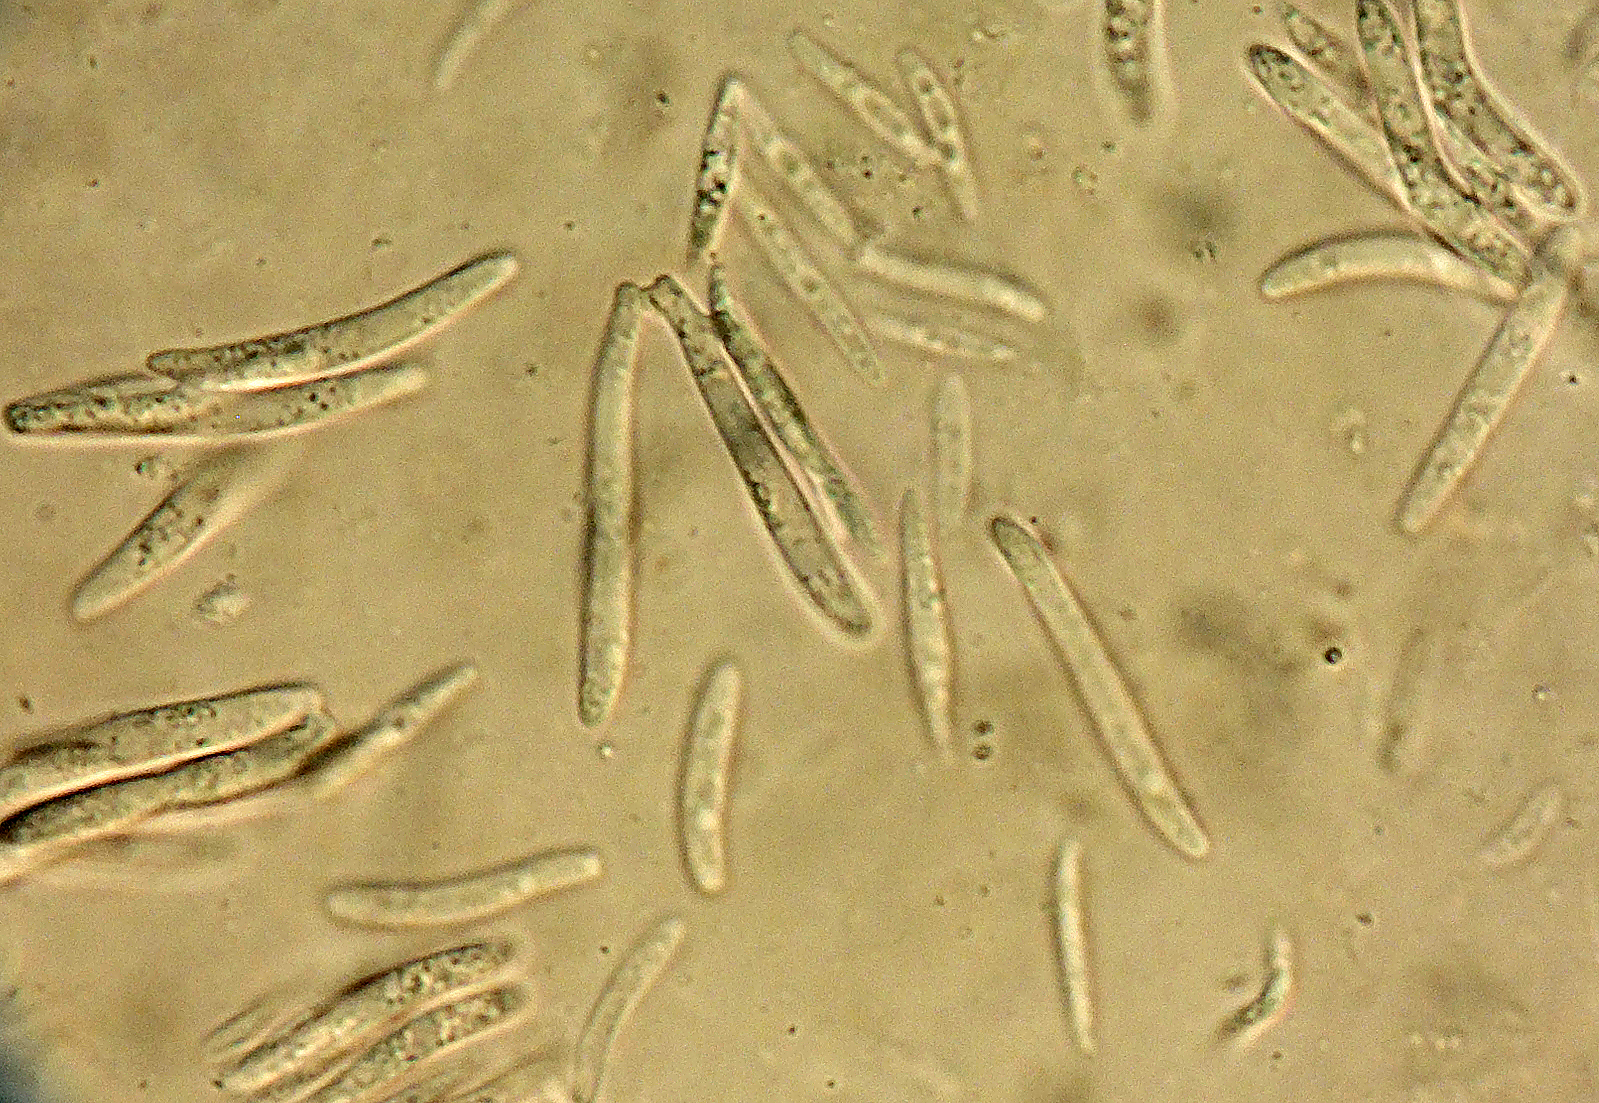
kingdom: Fungi
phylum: Ascomycota
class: Dothideomycetes
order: Mycosphaerellales
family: Mycosphaerellaceae
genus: Mycosphaerella
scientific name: Mycosphaerella populi
